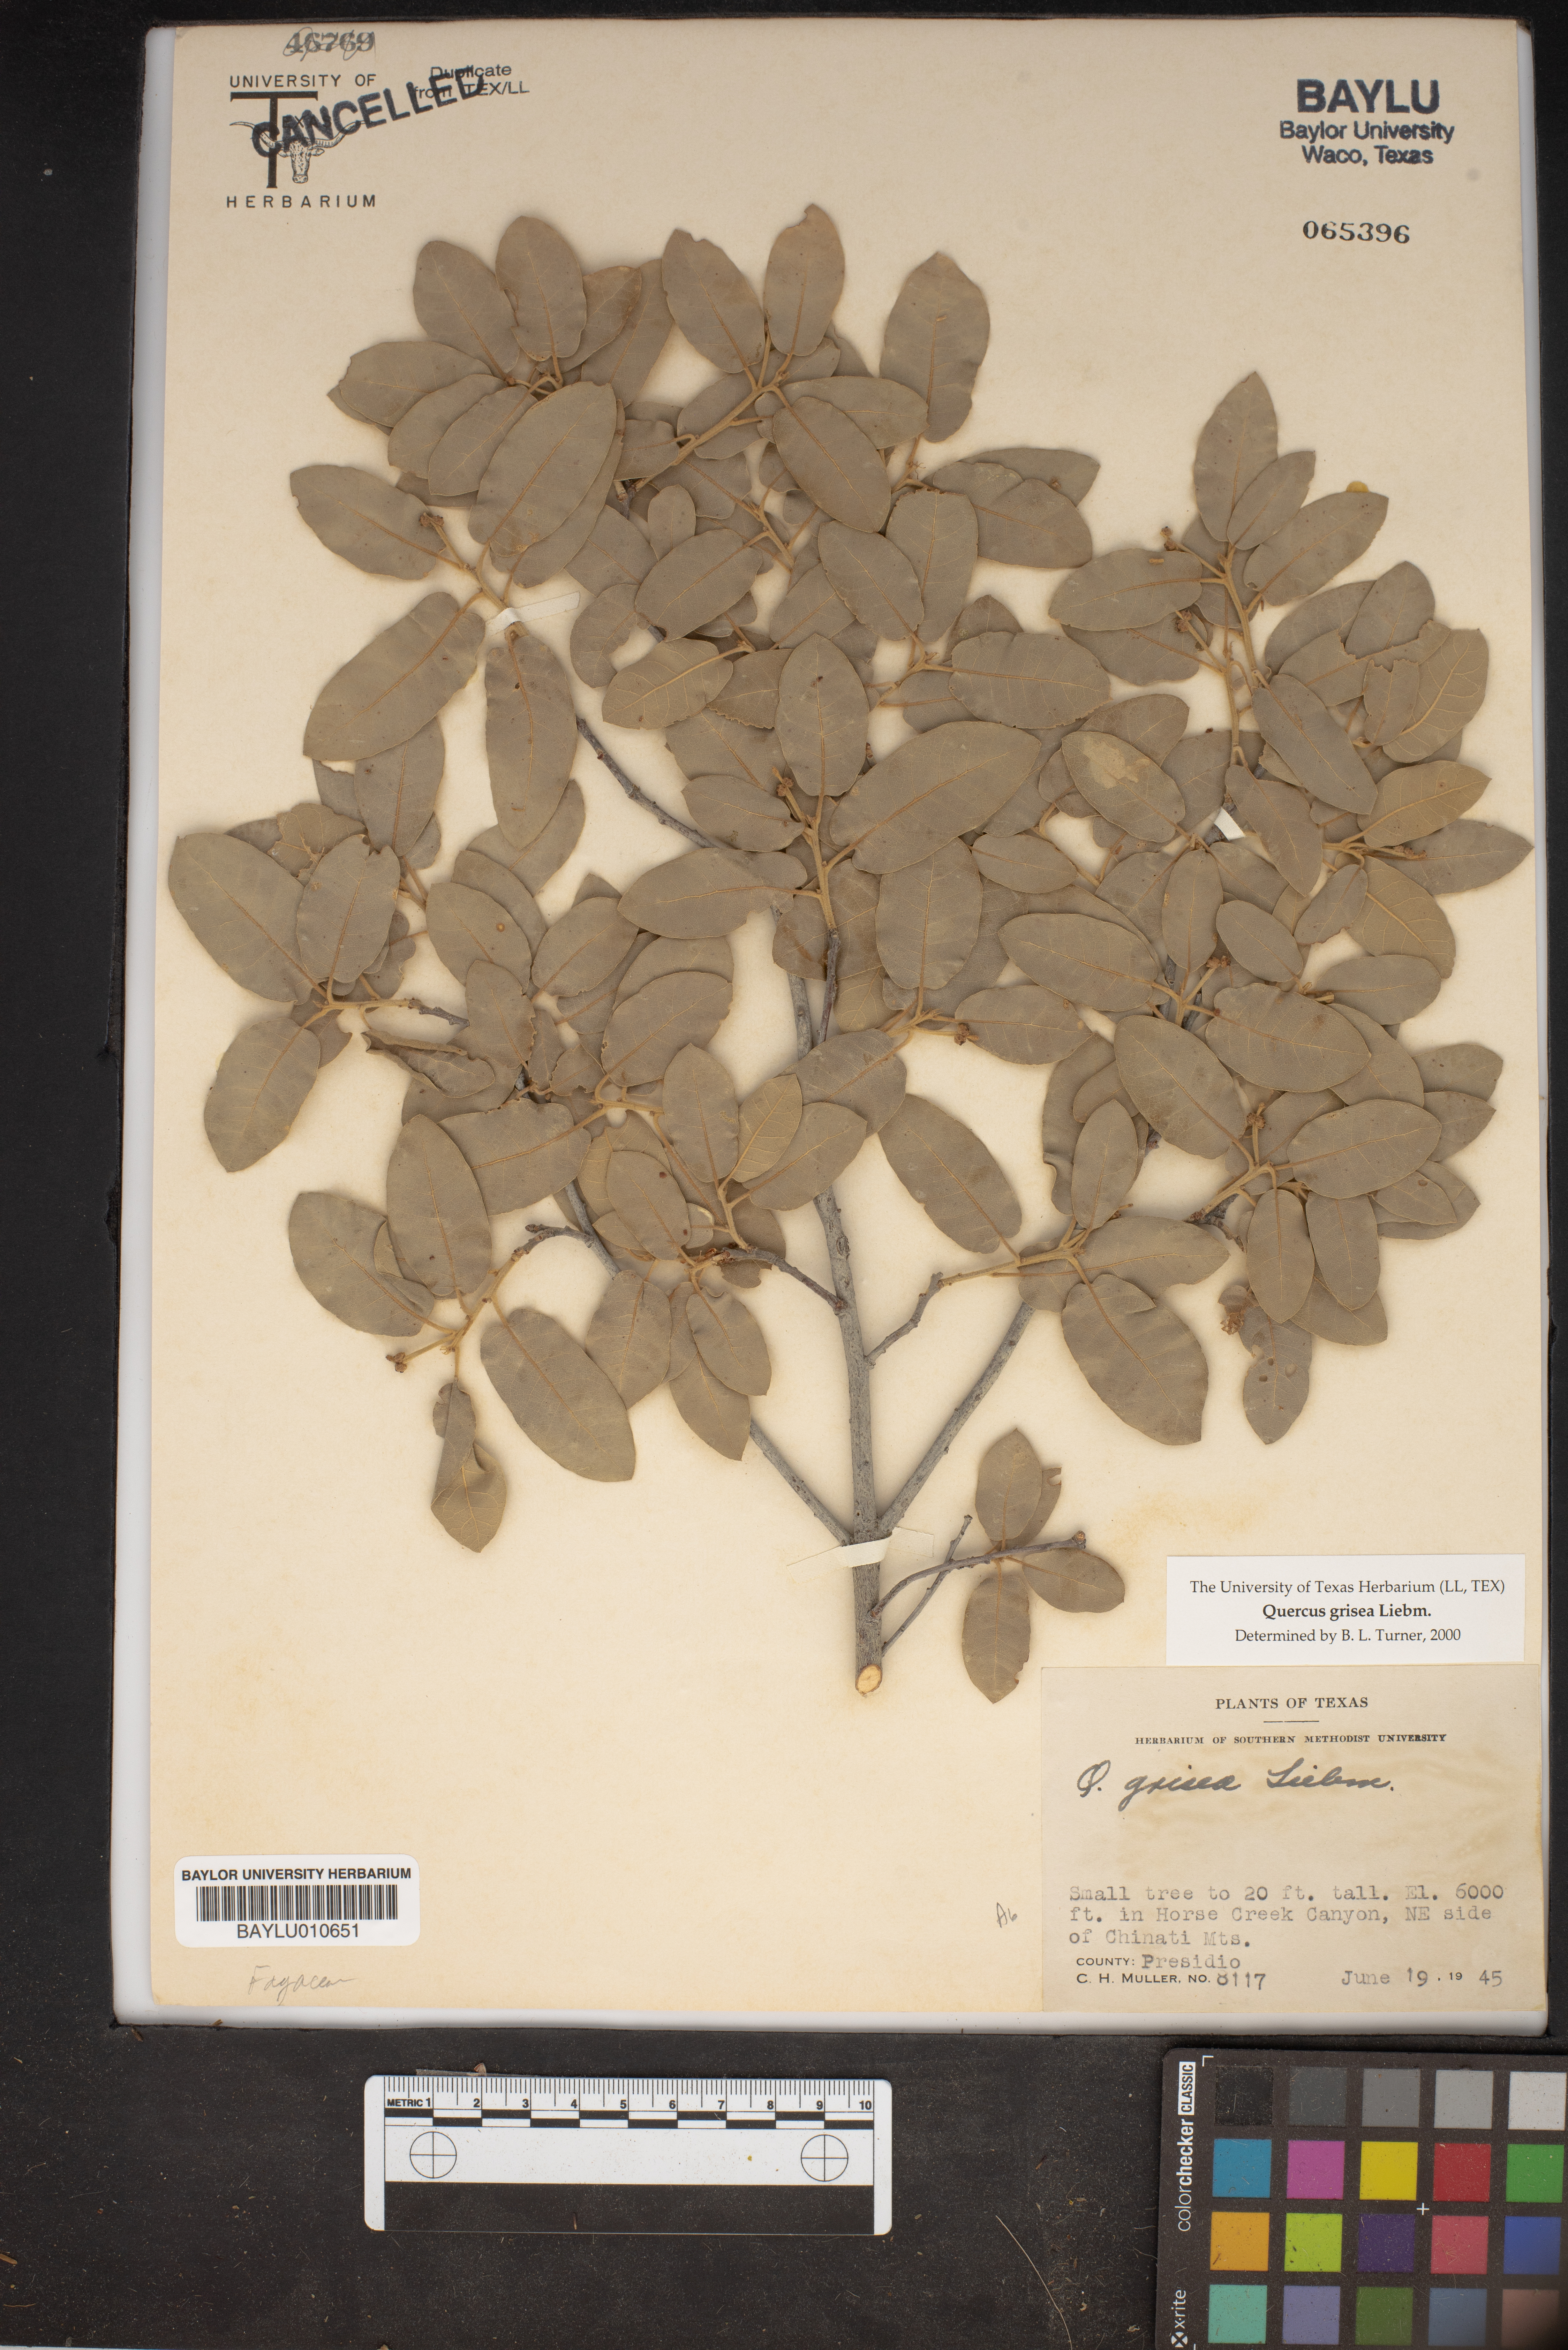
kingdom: Plantae
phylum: Tracheophyta
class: Magnoliopsida
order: Fagales
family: Fagaceae
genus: Quercus
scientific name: Quercus grisea
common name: Gray oak
